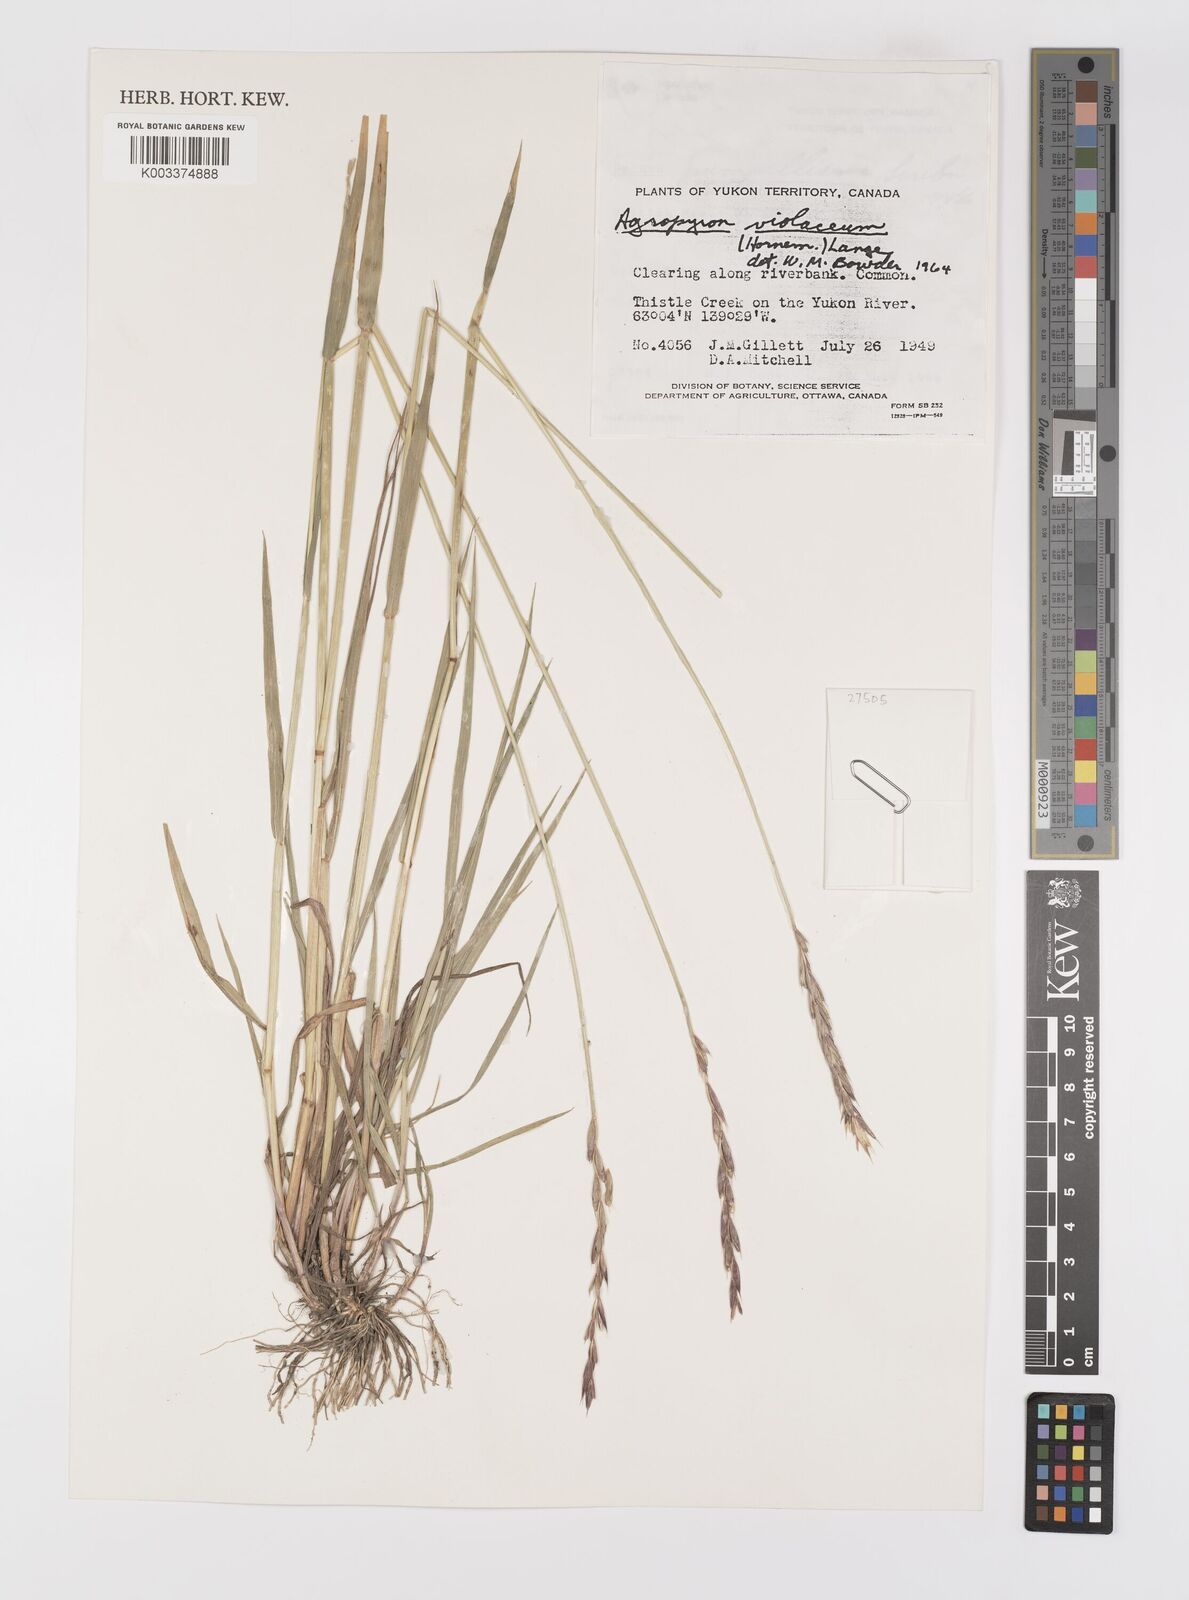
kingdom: Plantae
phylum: Tracheophyta
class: Liliopsida
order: Poales
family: Poaceae
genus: Elymus
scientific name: Elymus violaceus
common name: Arctic wheatgrass
